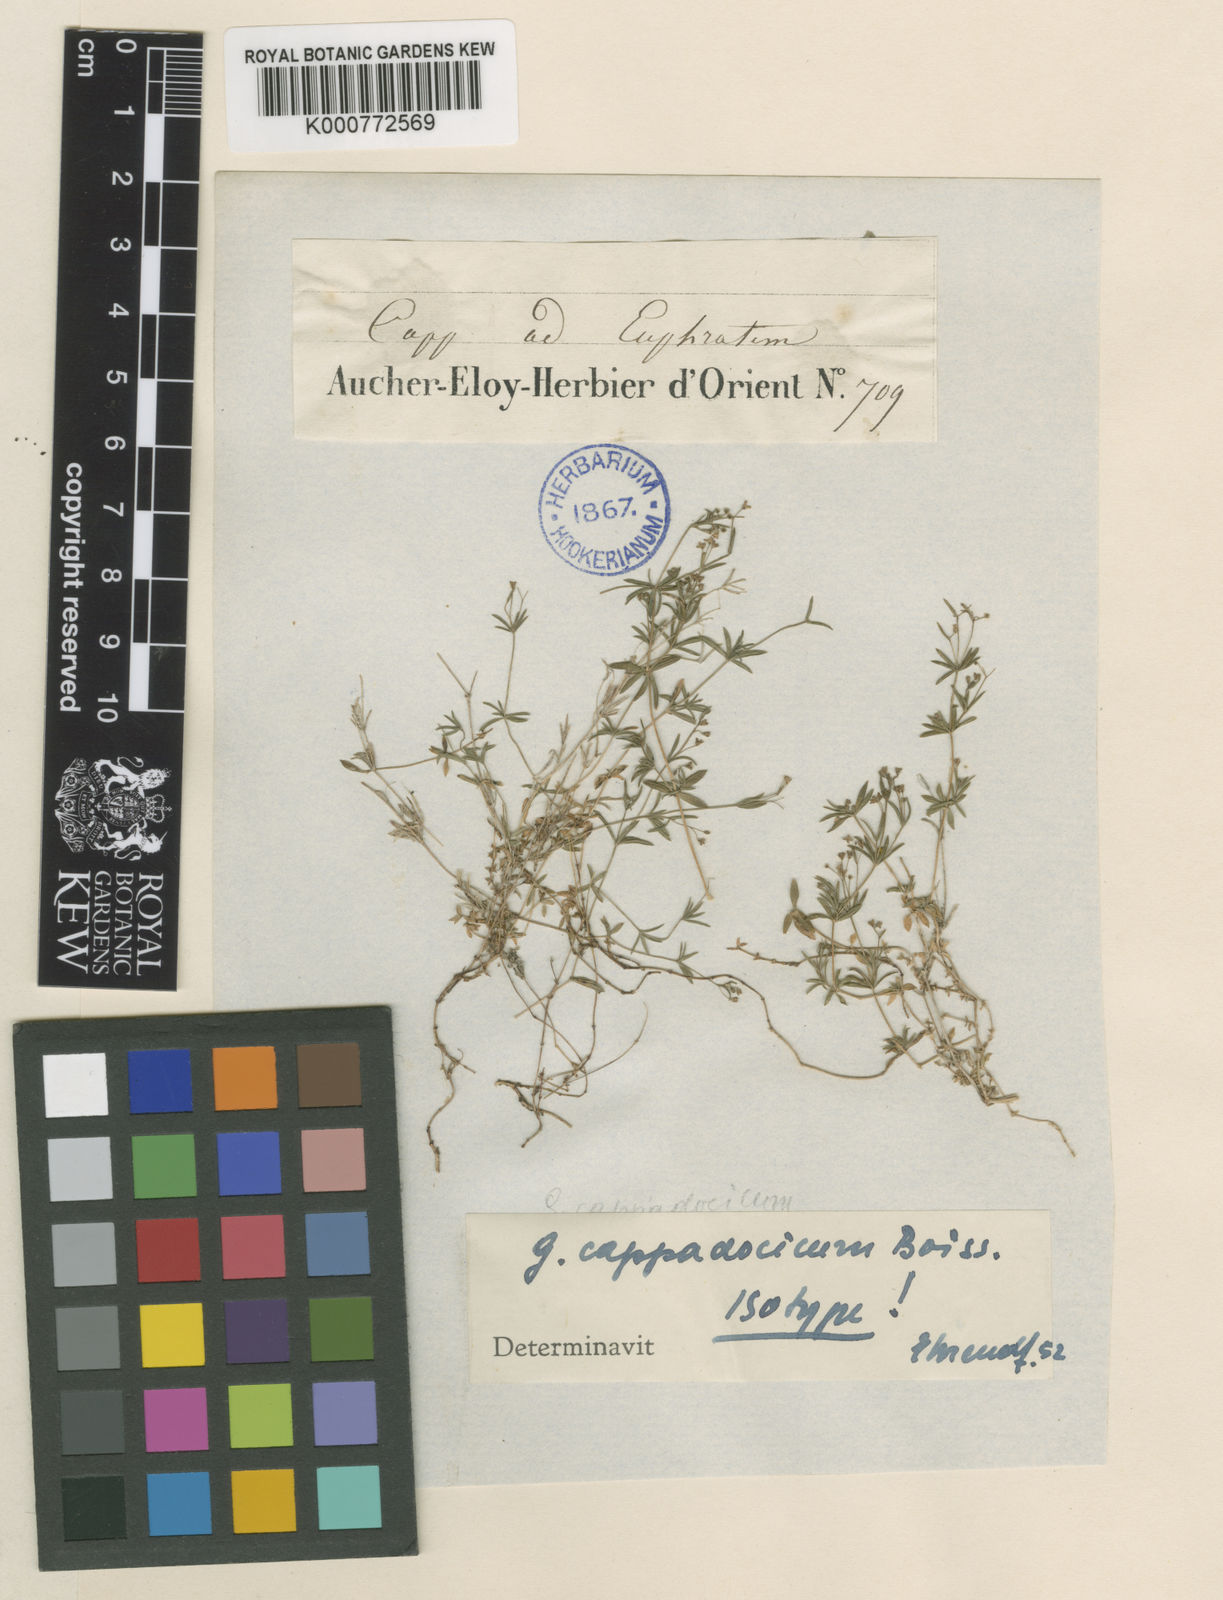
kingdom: Plantae
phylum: Tracheophyta
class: Magnoliopsida
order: Gentianales
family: Rubiaceae
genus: Galium
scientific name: Galium cappadocicum
